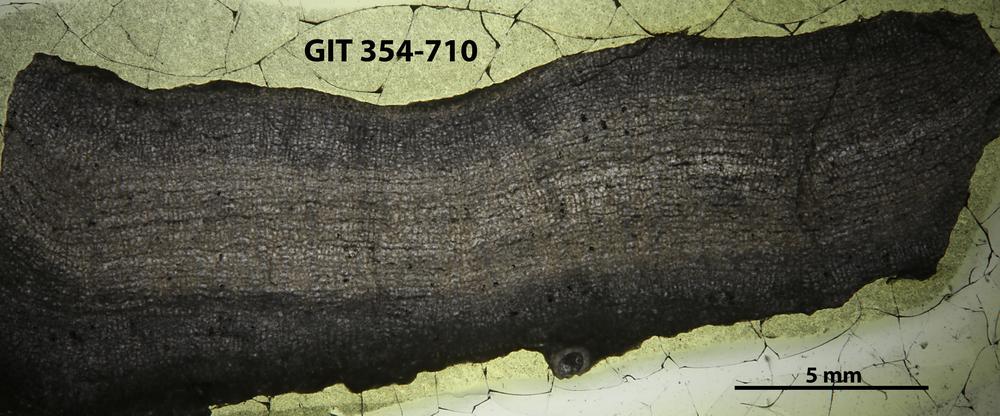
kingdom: Animalia
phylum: Porifera
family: Actinostromatidae
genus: Plectostroma
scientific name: Plectostroma
